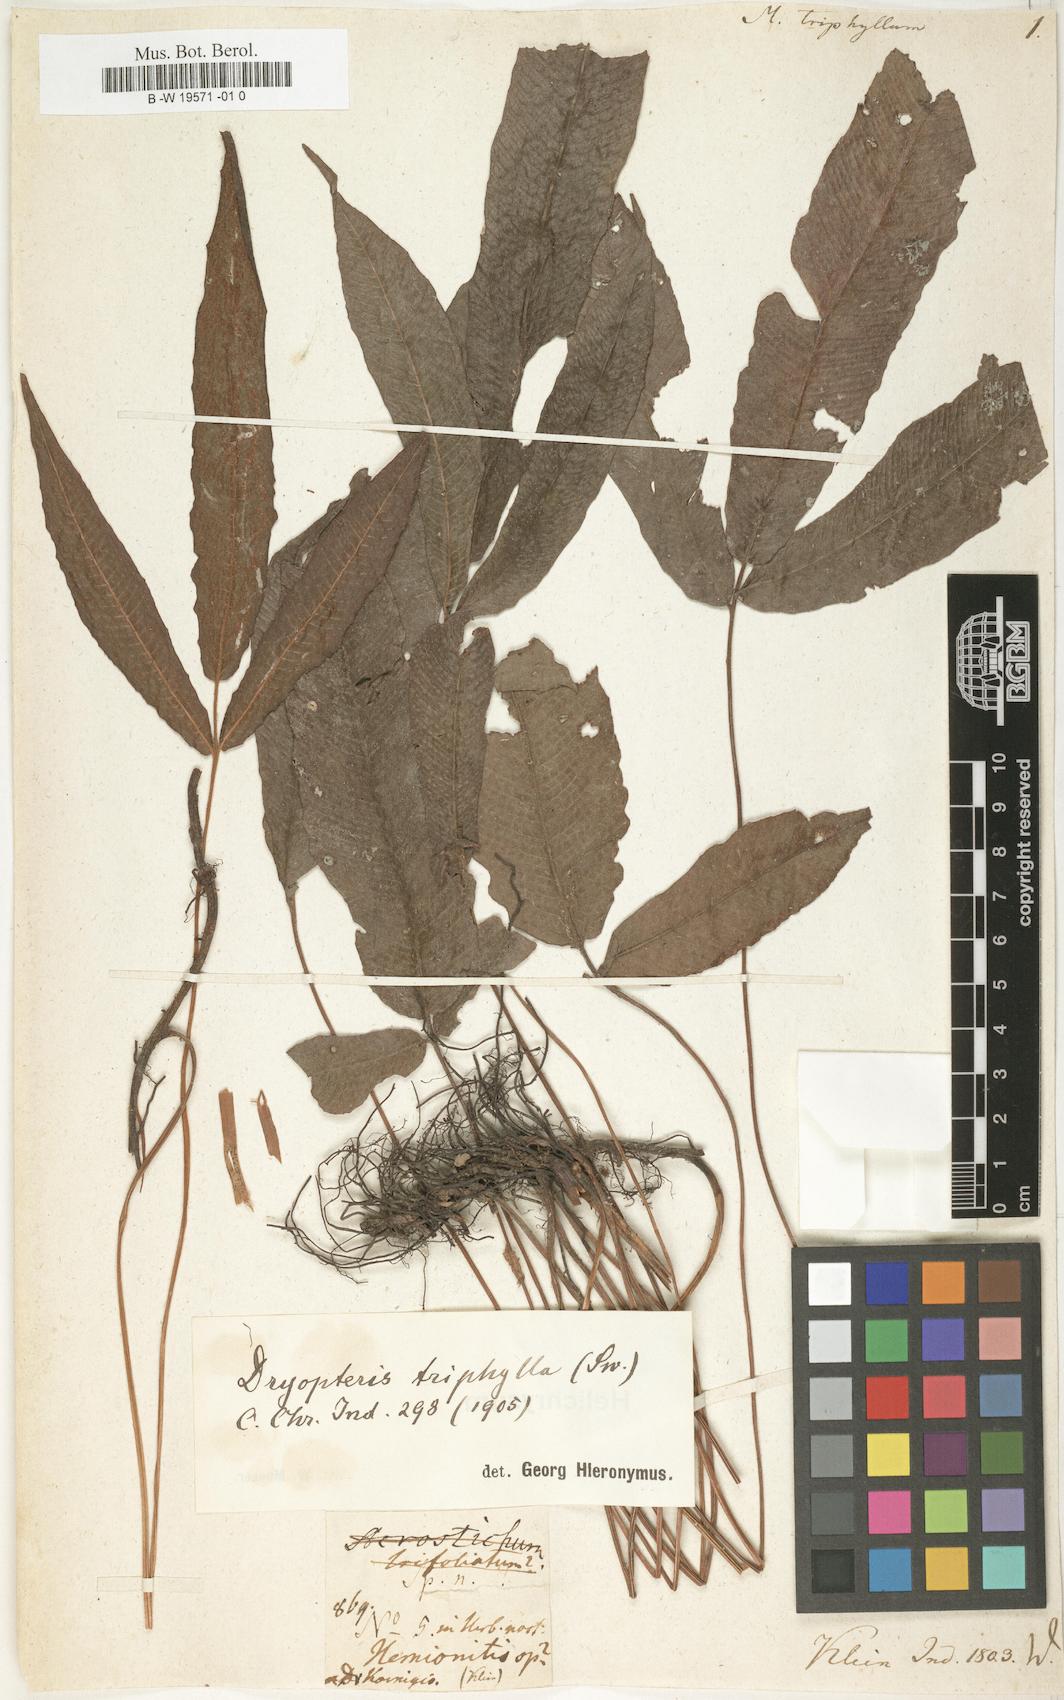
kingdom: Plantae
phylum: Tracheophyta
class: Polypodiopsida
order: Polypodiales
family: Thelypteridaceae
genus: Grypothrix
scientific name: Grypothrix triphylla
